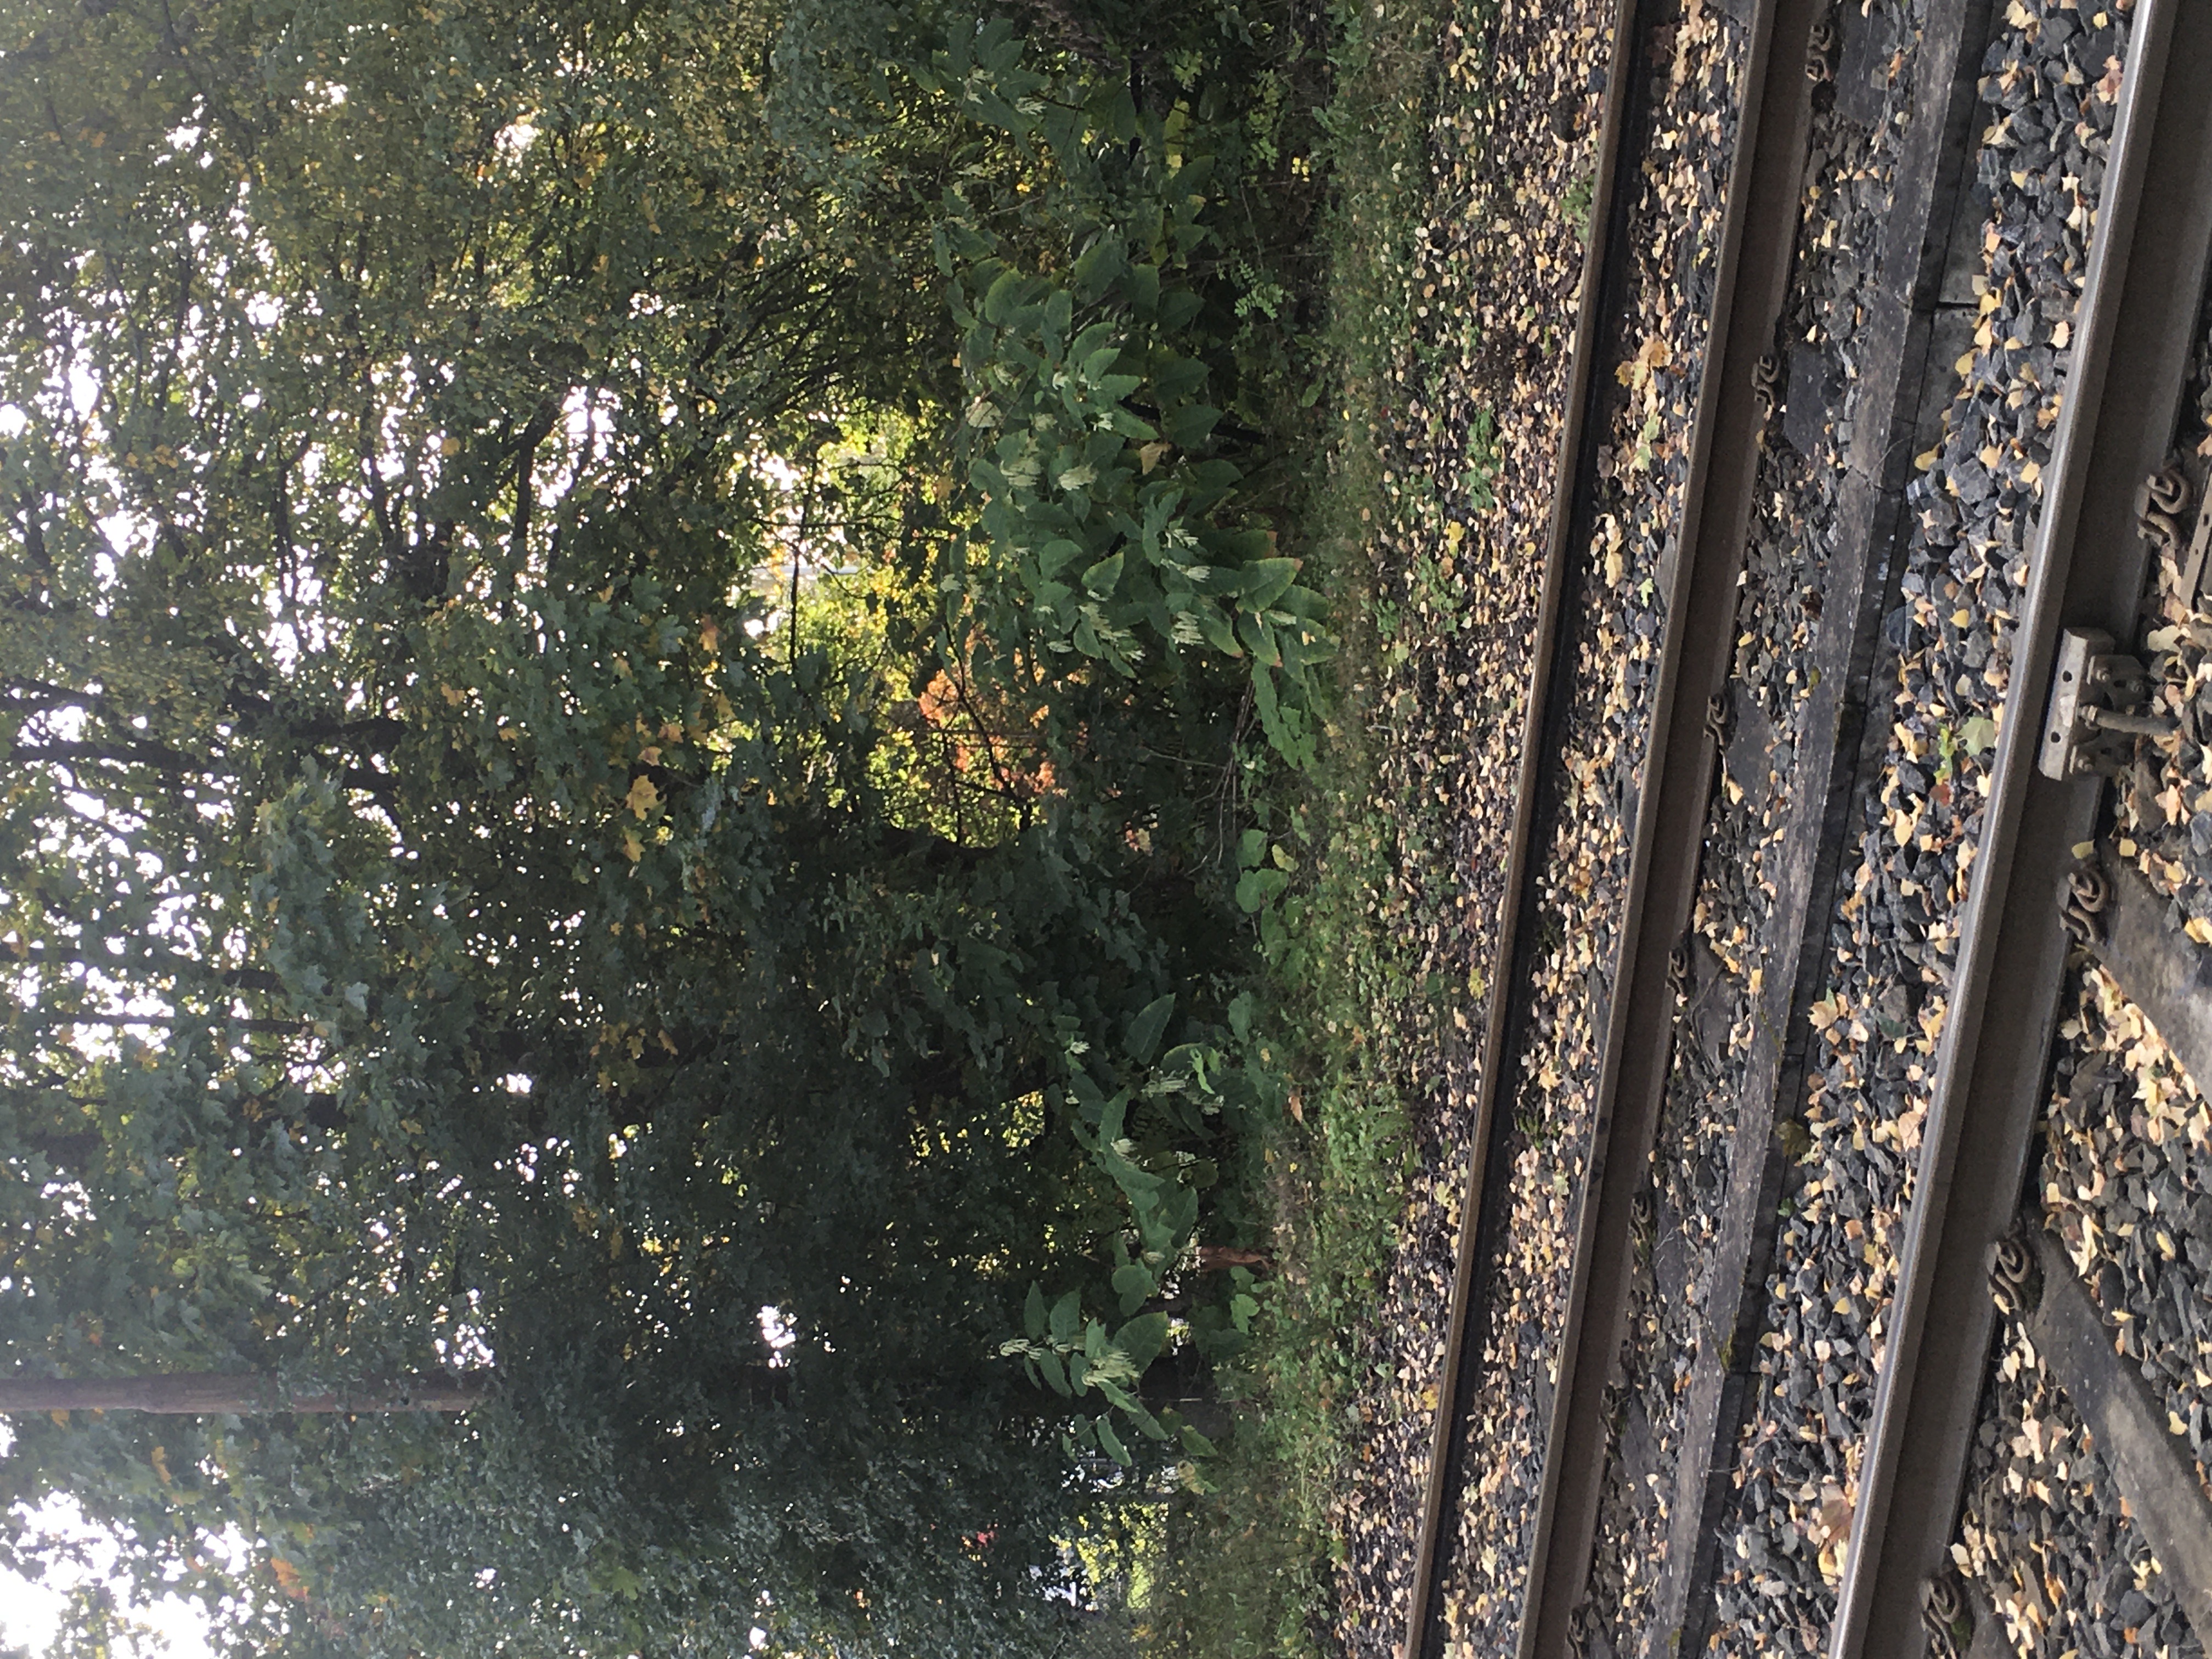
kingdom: Plantae
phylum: Tracheophyta
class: Magnoliopsida
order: Caryophyllales
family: Polygonaceae
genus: Reynoutria
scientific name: Reynoutria sachalinensis
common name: kjempeslirekne
